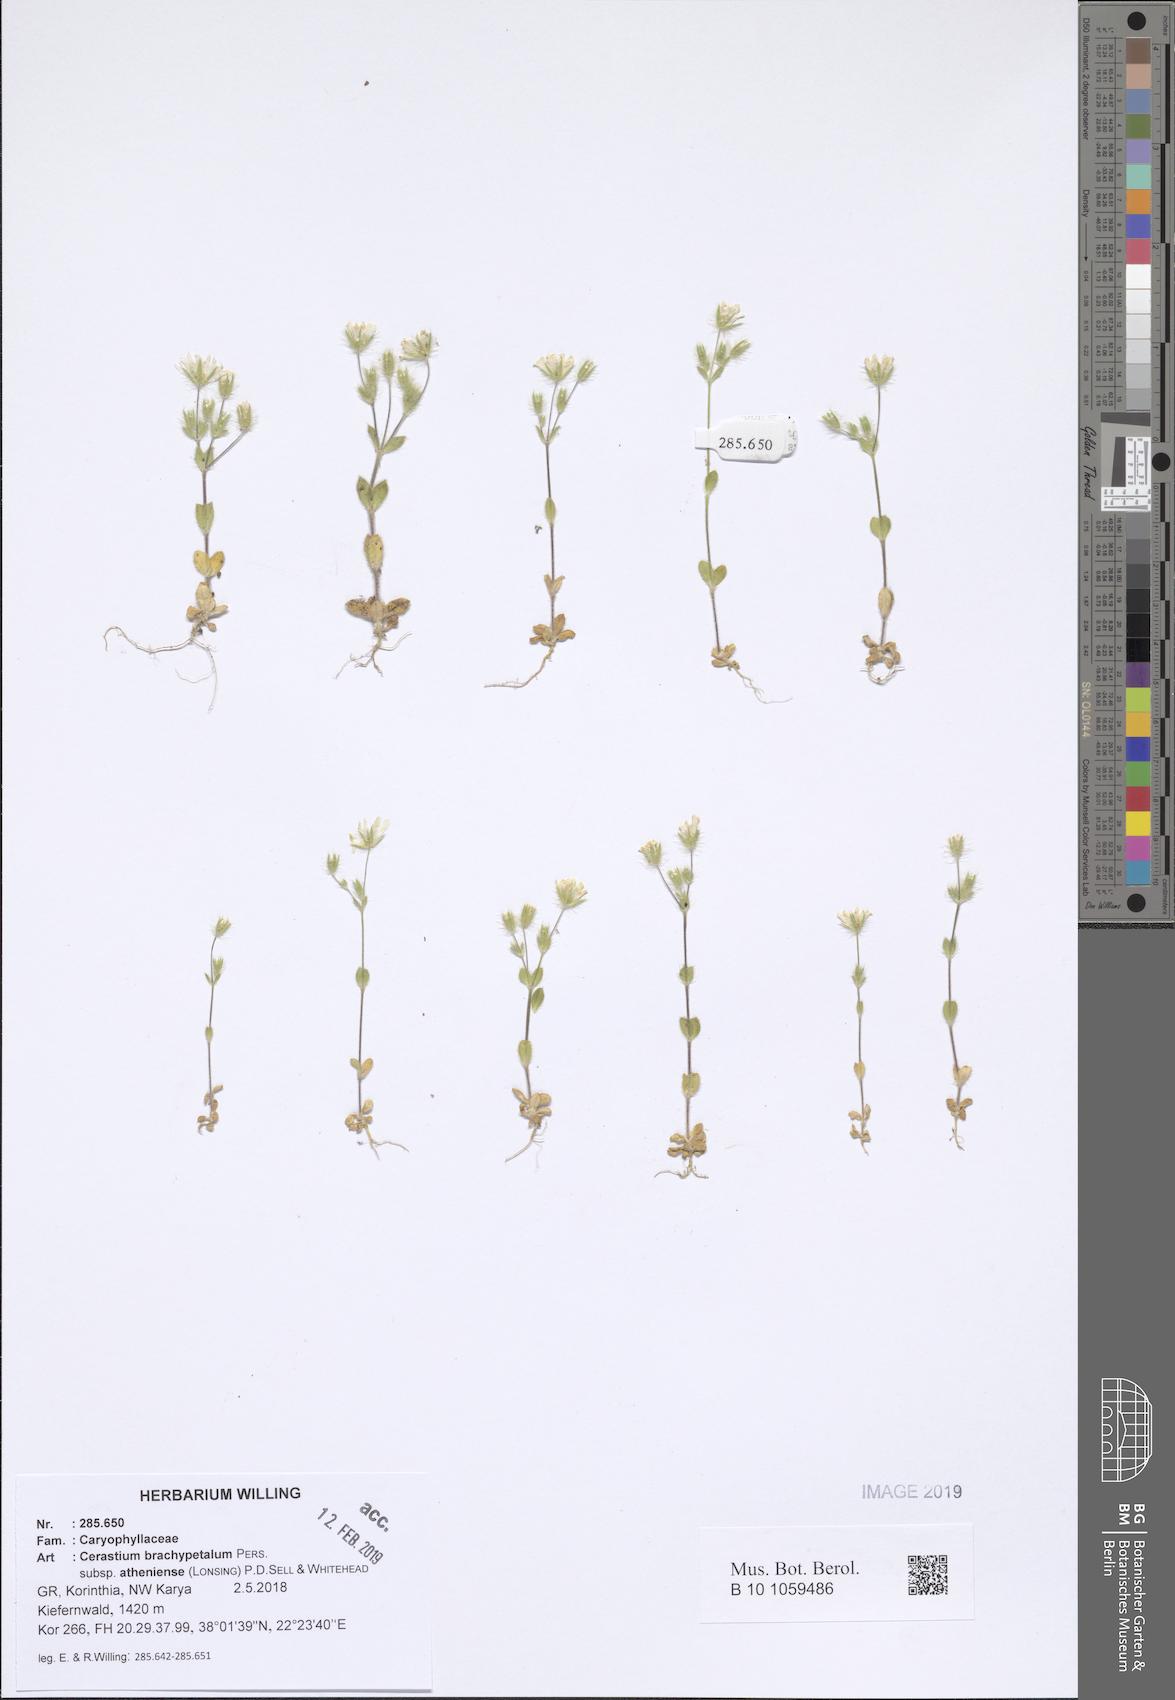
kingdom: Plantae
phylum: Tracheophyta
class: Magnoliopsida
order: Caryophyllales
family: Caryophyllaceae
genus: Cerastium
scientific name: Cerastium brachypetalum
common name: Grey mouse-ear
